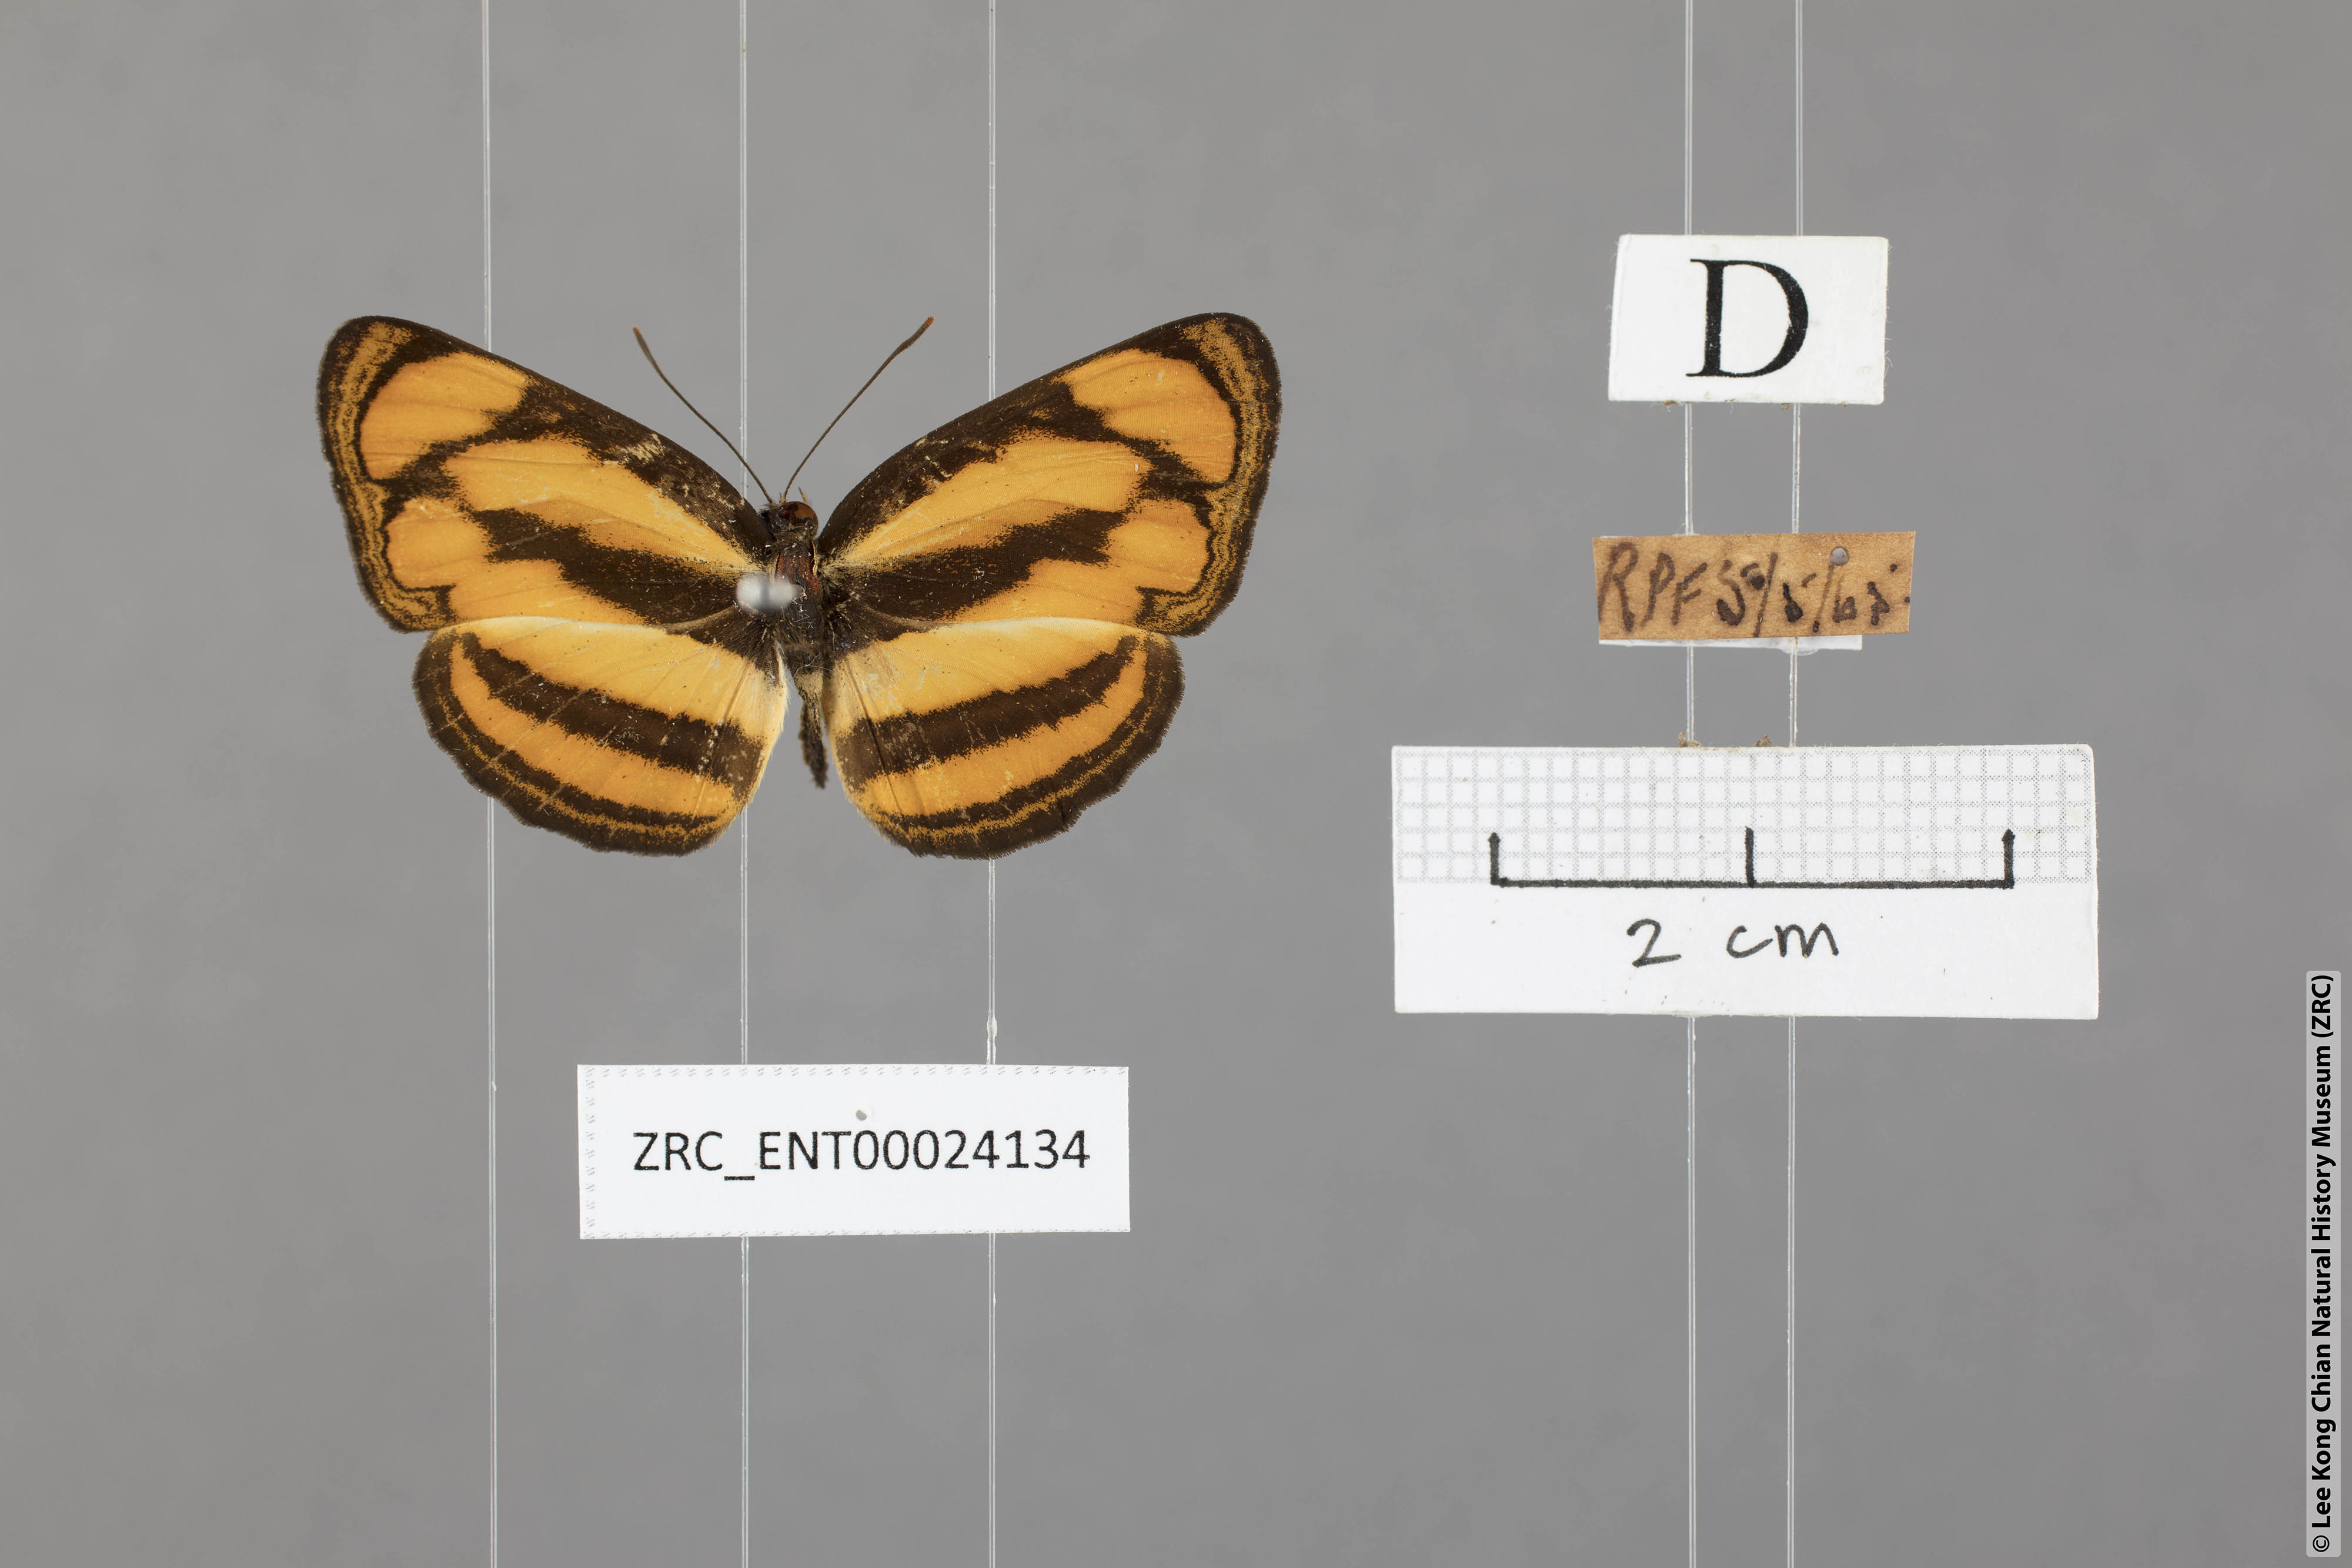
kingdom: Animalia
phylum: Arthropoda
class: Insecta
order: Lepidoptera
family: Nymphalidae
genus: Pantoporia
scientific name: Pantoporia paraka
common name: Perak lascar
